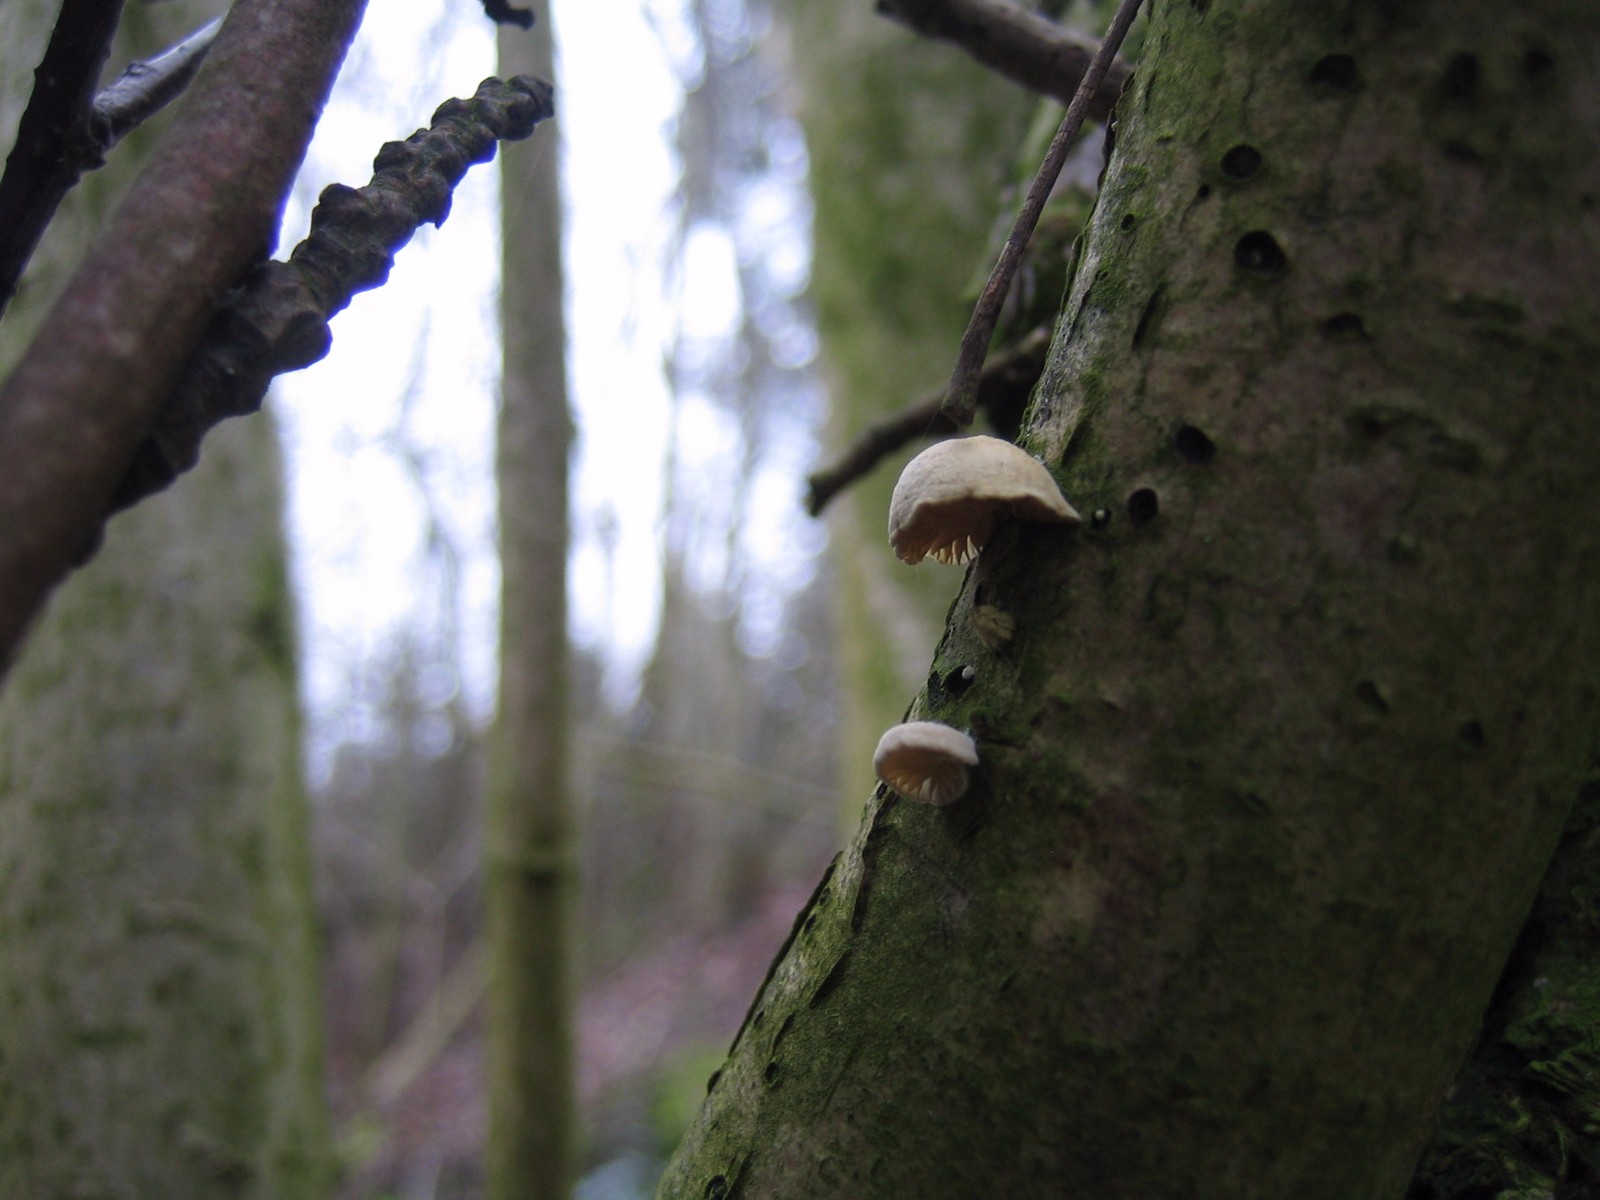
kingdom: Fungi
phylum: Basidiomycota
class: Agaricomycetes
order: Agaricales
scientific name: Agaricales
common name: champignonordenen
